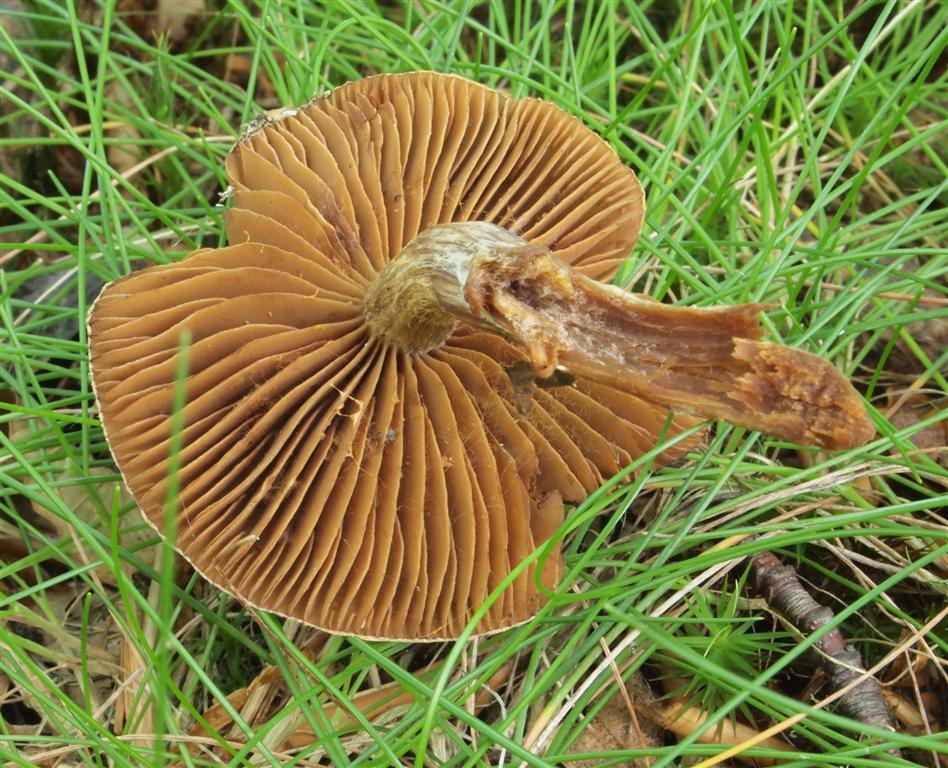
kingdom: Fungi
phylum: Basidiomycota
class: Agaricomycetes
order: Agaricales
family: Cortinariaceae
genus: Cortinarius
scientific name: Cortinarius
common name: pelargonie-slørhat
